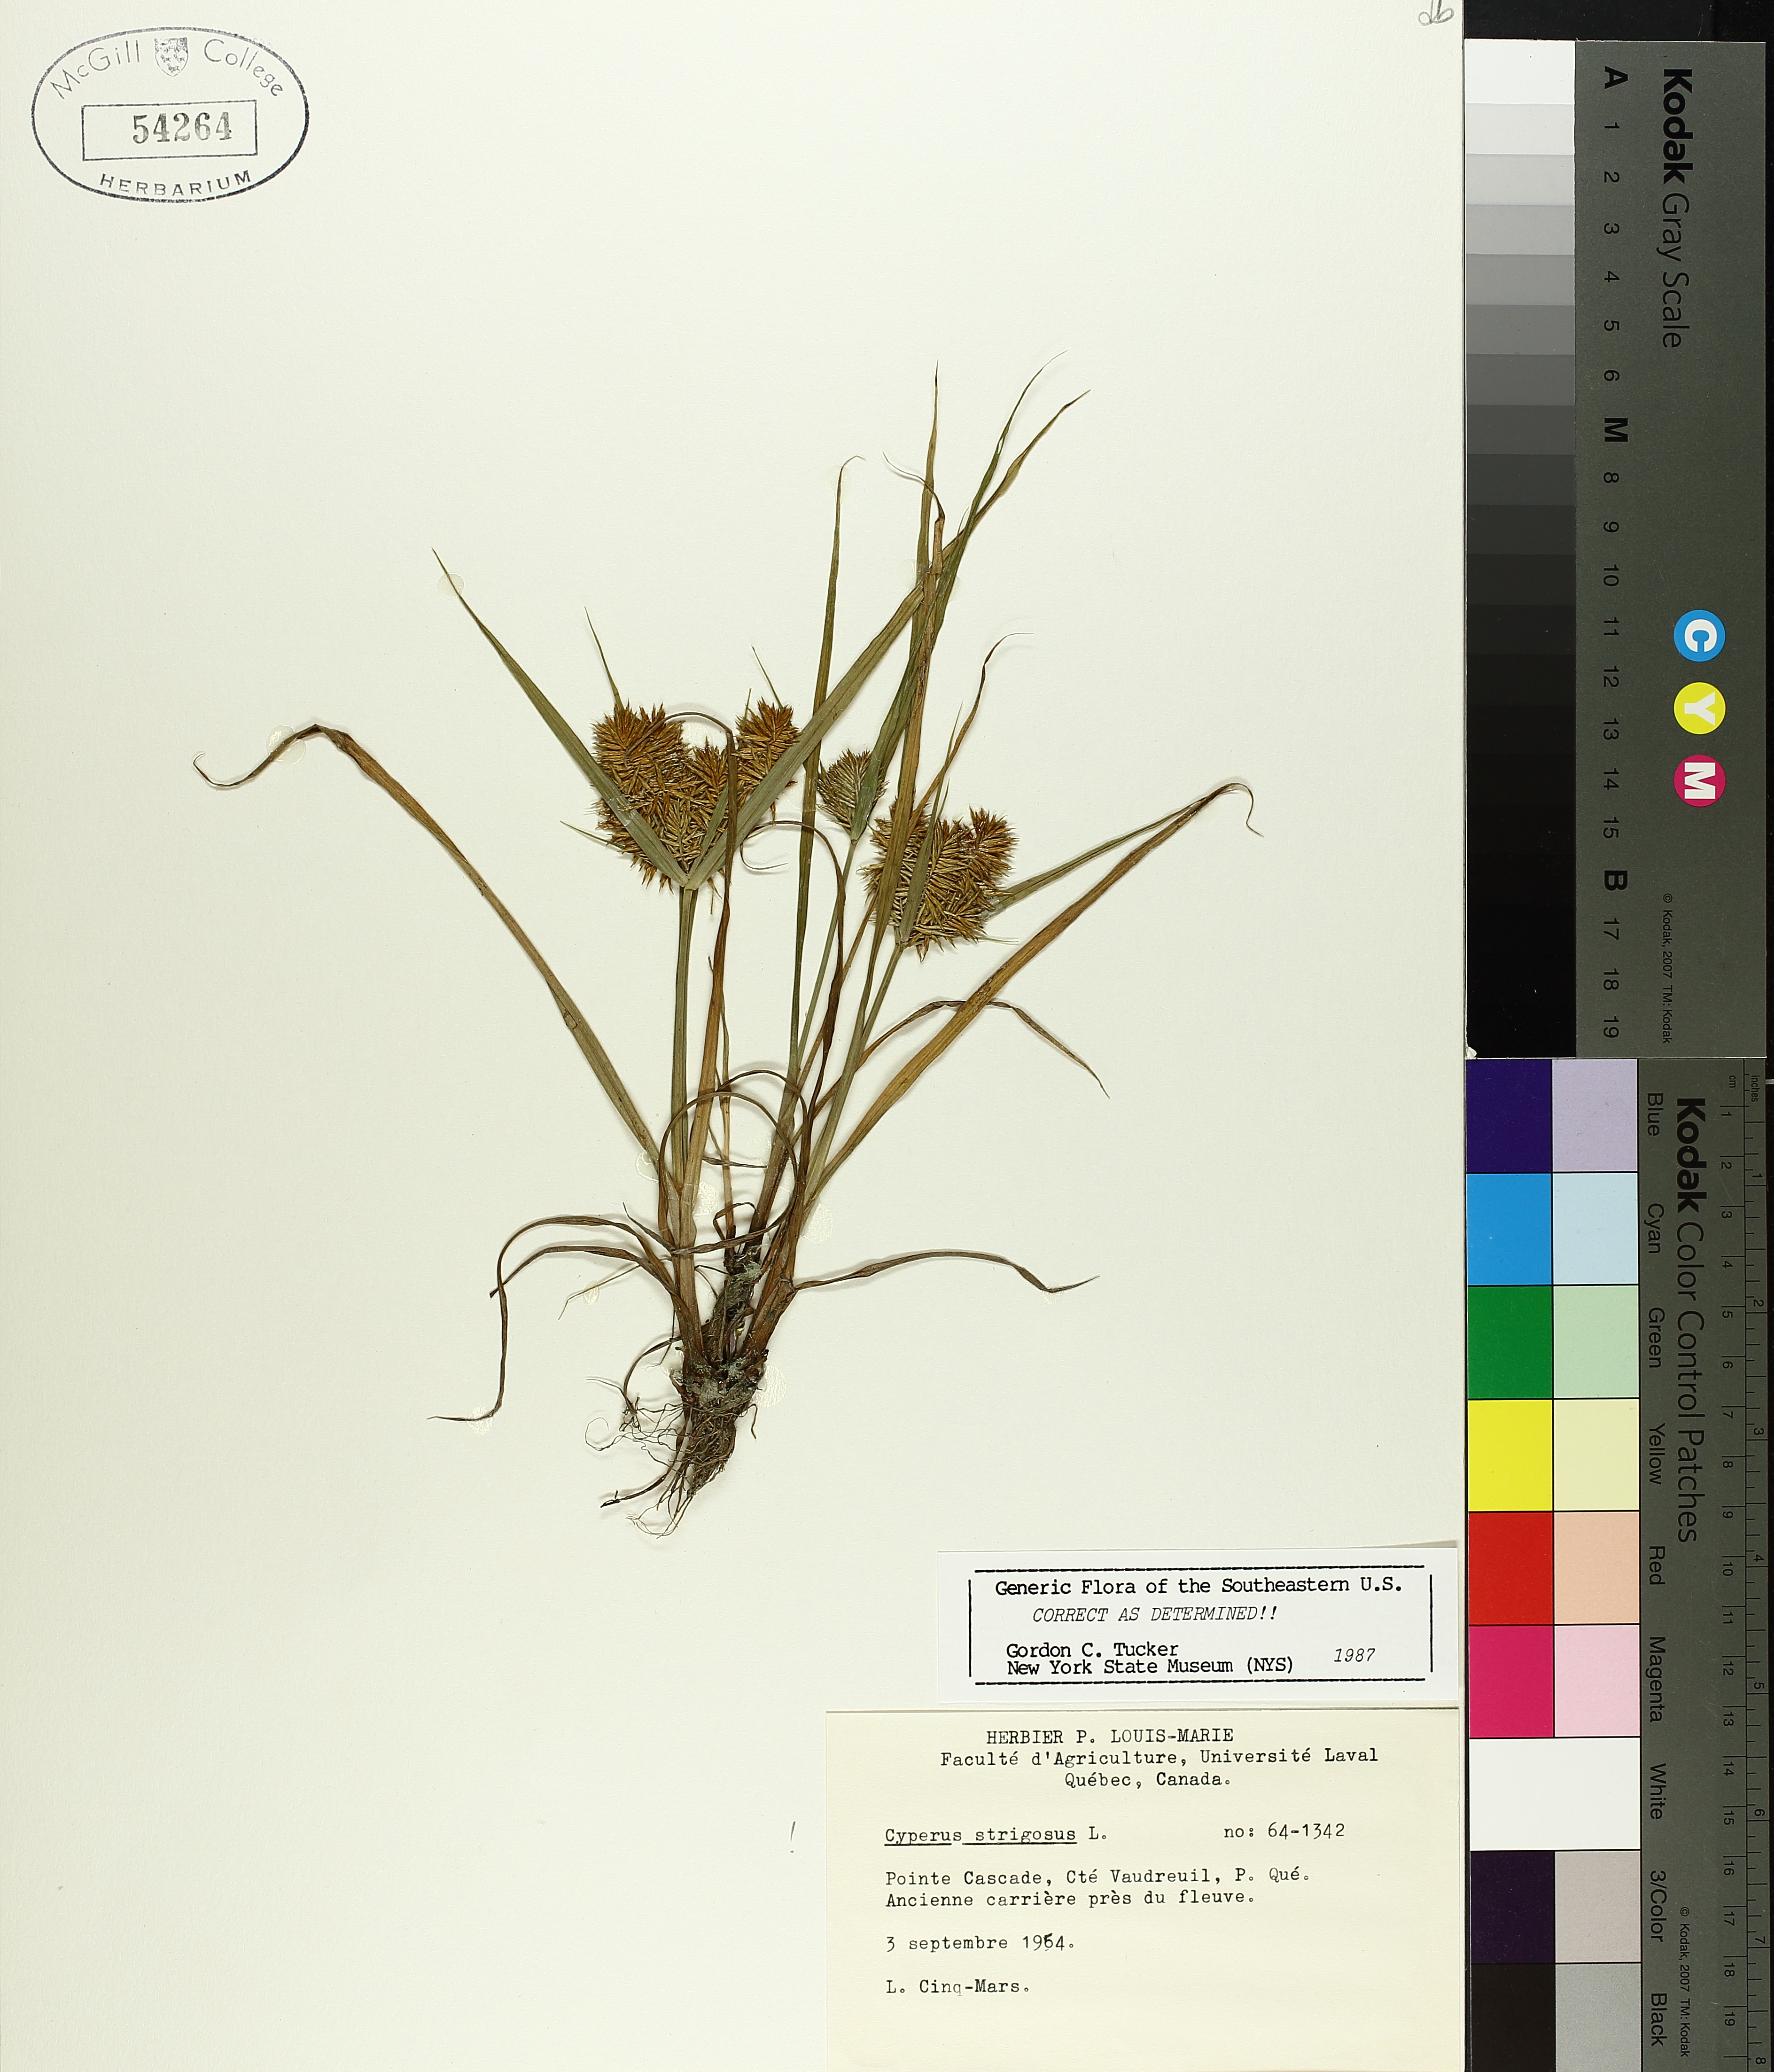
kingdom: Plantae
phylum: Tracheophyta
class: Liliopsida
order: Poales
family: Cyperaceae
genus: Cyperus
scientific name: Cyperus strigosus
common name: False nutsedge
